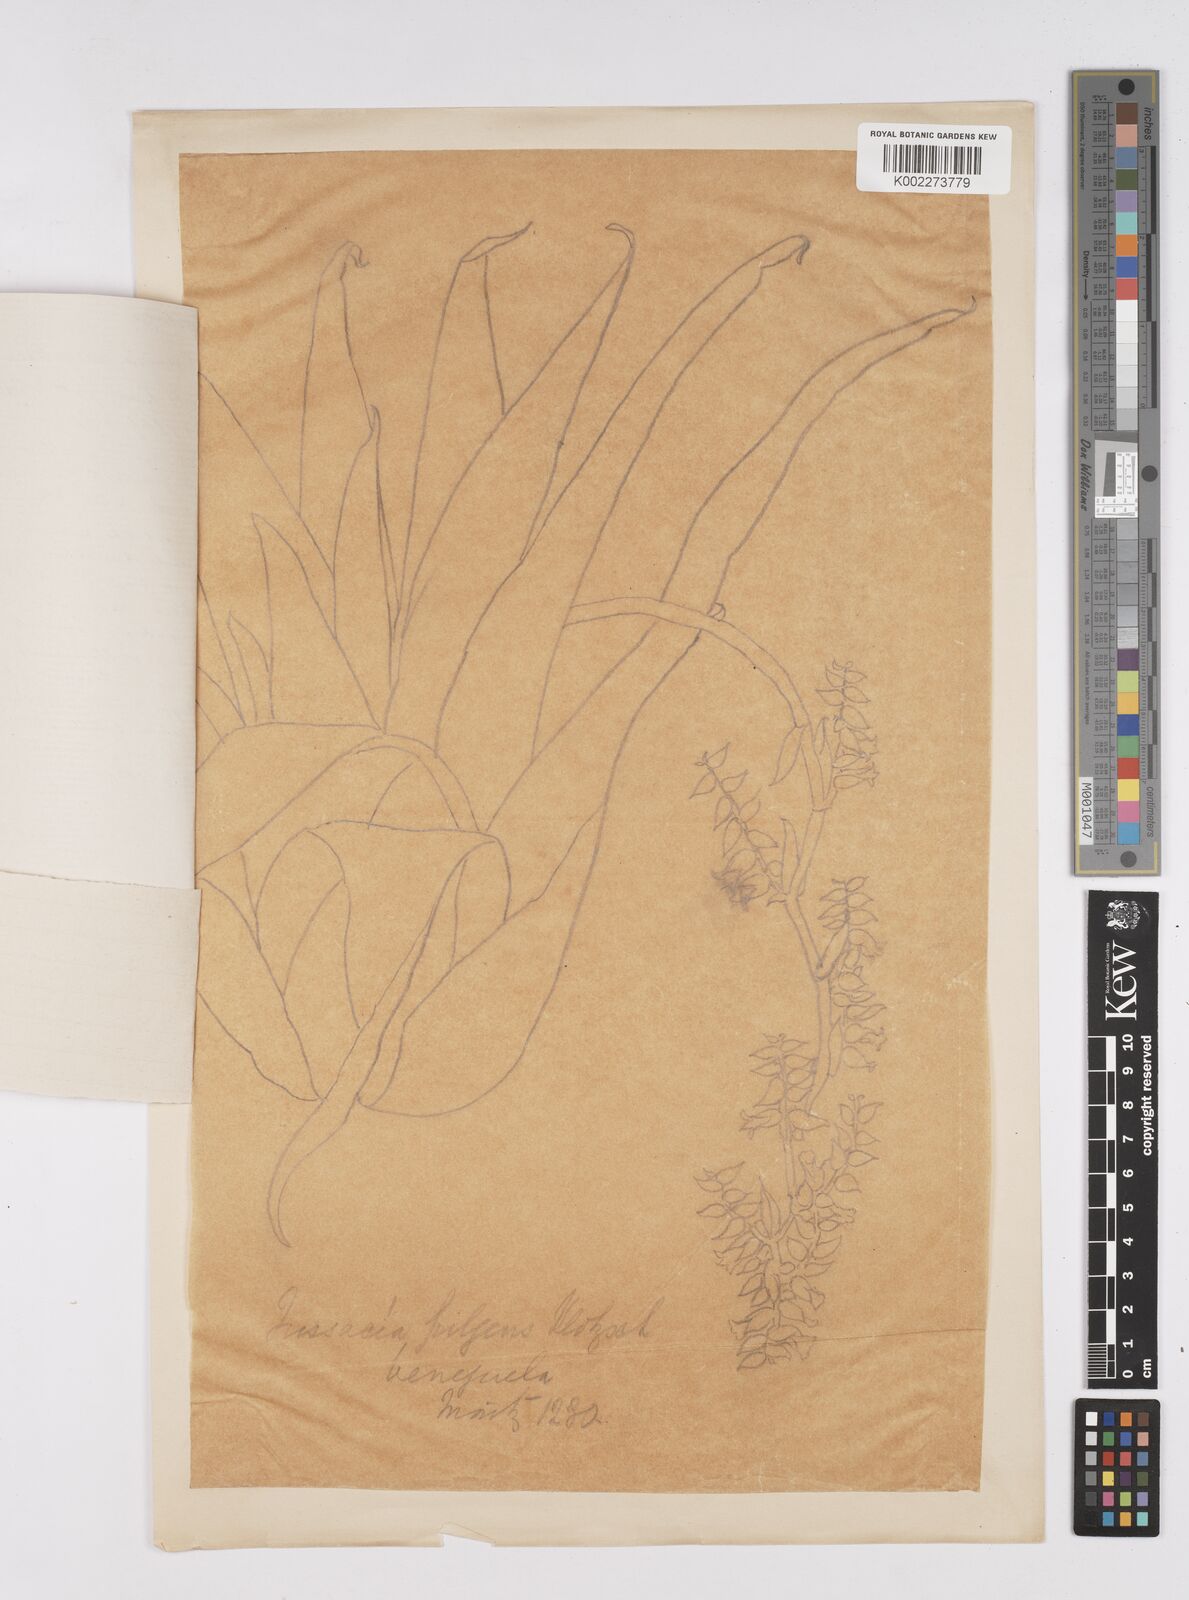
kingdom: Plantae
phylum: Tracheophyta
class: Liliopsida
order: Poales
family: Bromeliaceae
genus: Racinaea
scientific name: Racinaea tetrantha
